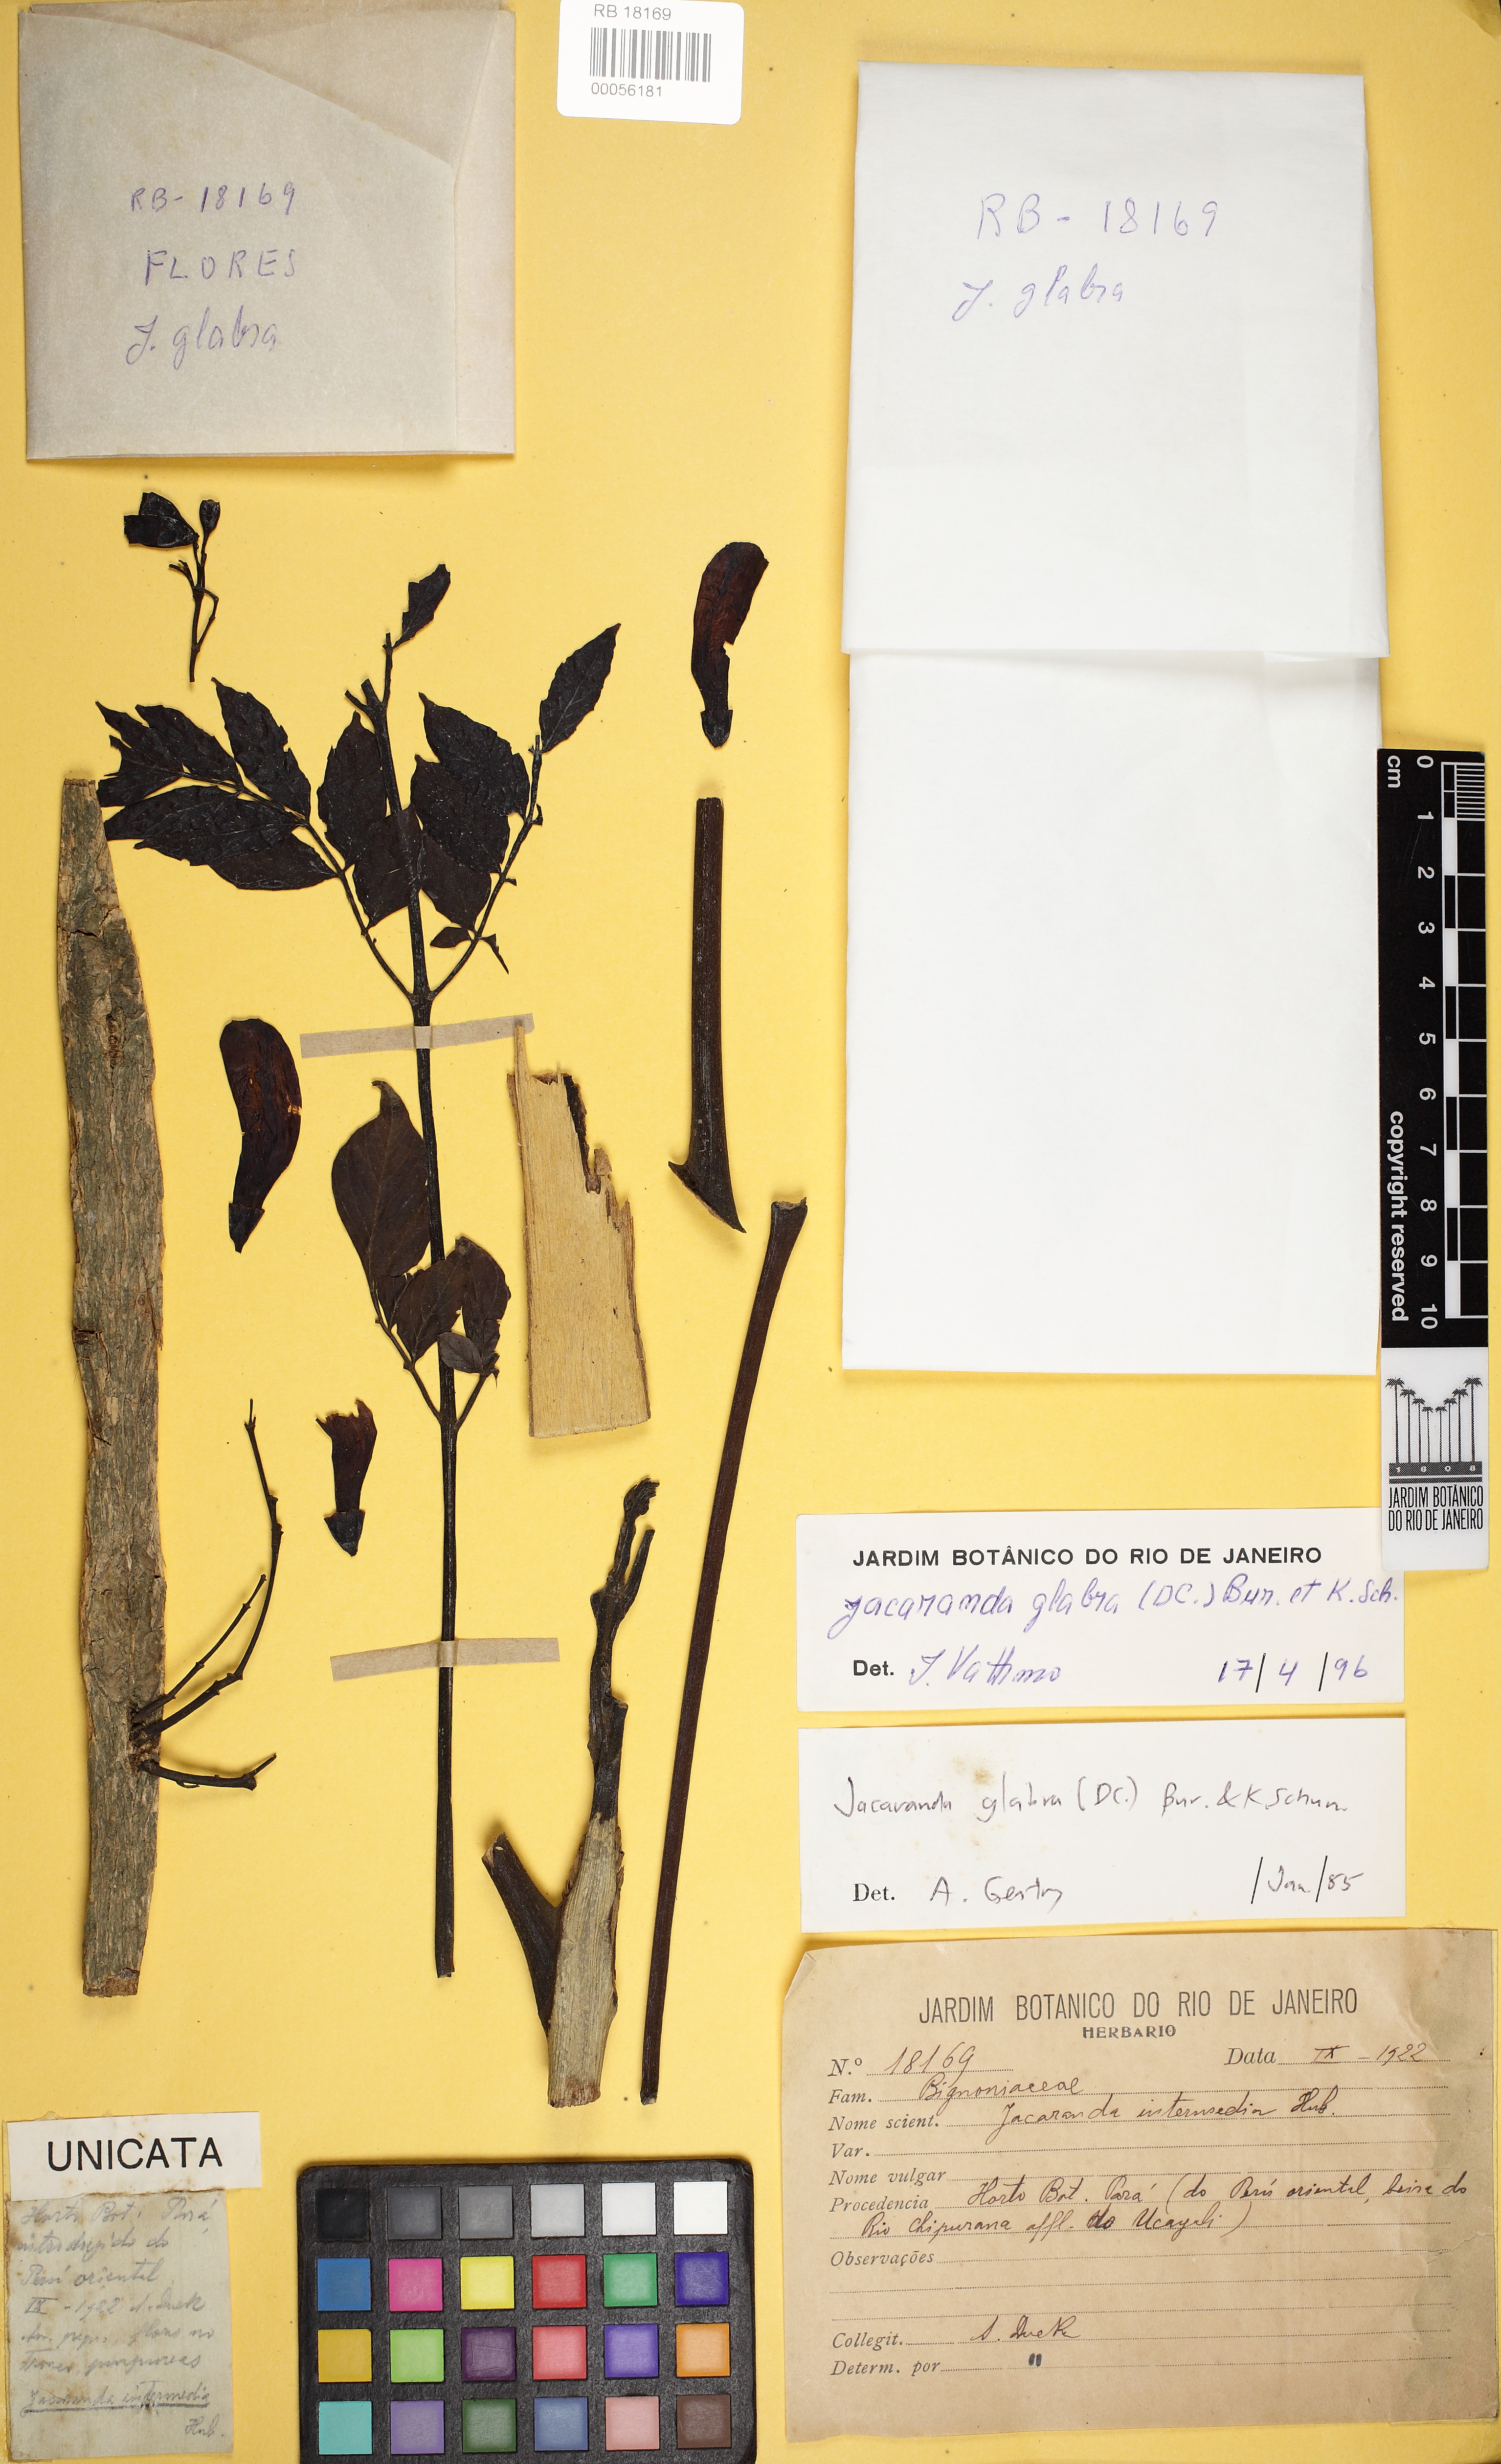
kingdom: Plantae
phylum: Tracheophyta
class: Magnoliopsida
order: Lamiales
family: Bignoniaceae
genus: Jacaranda
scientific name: Jacaranda glabra
